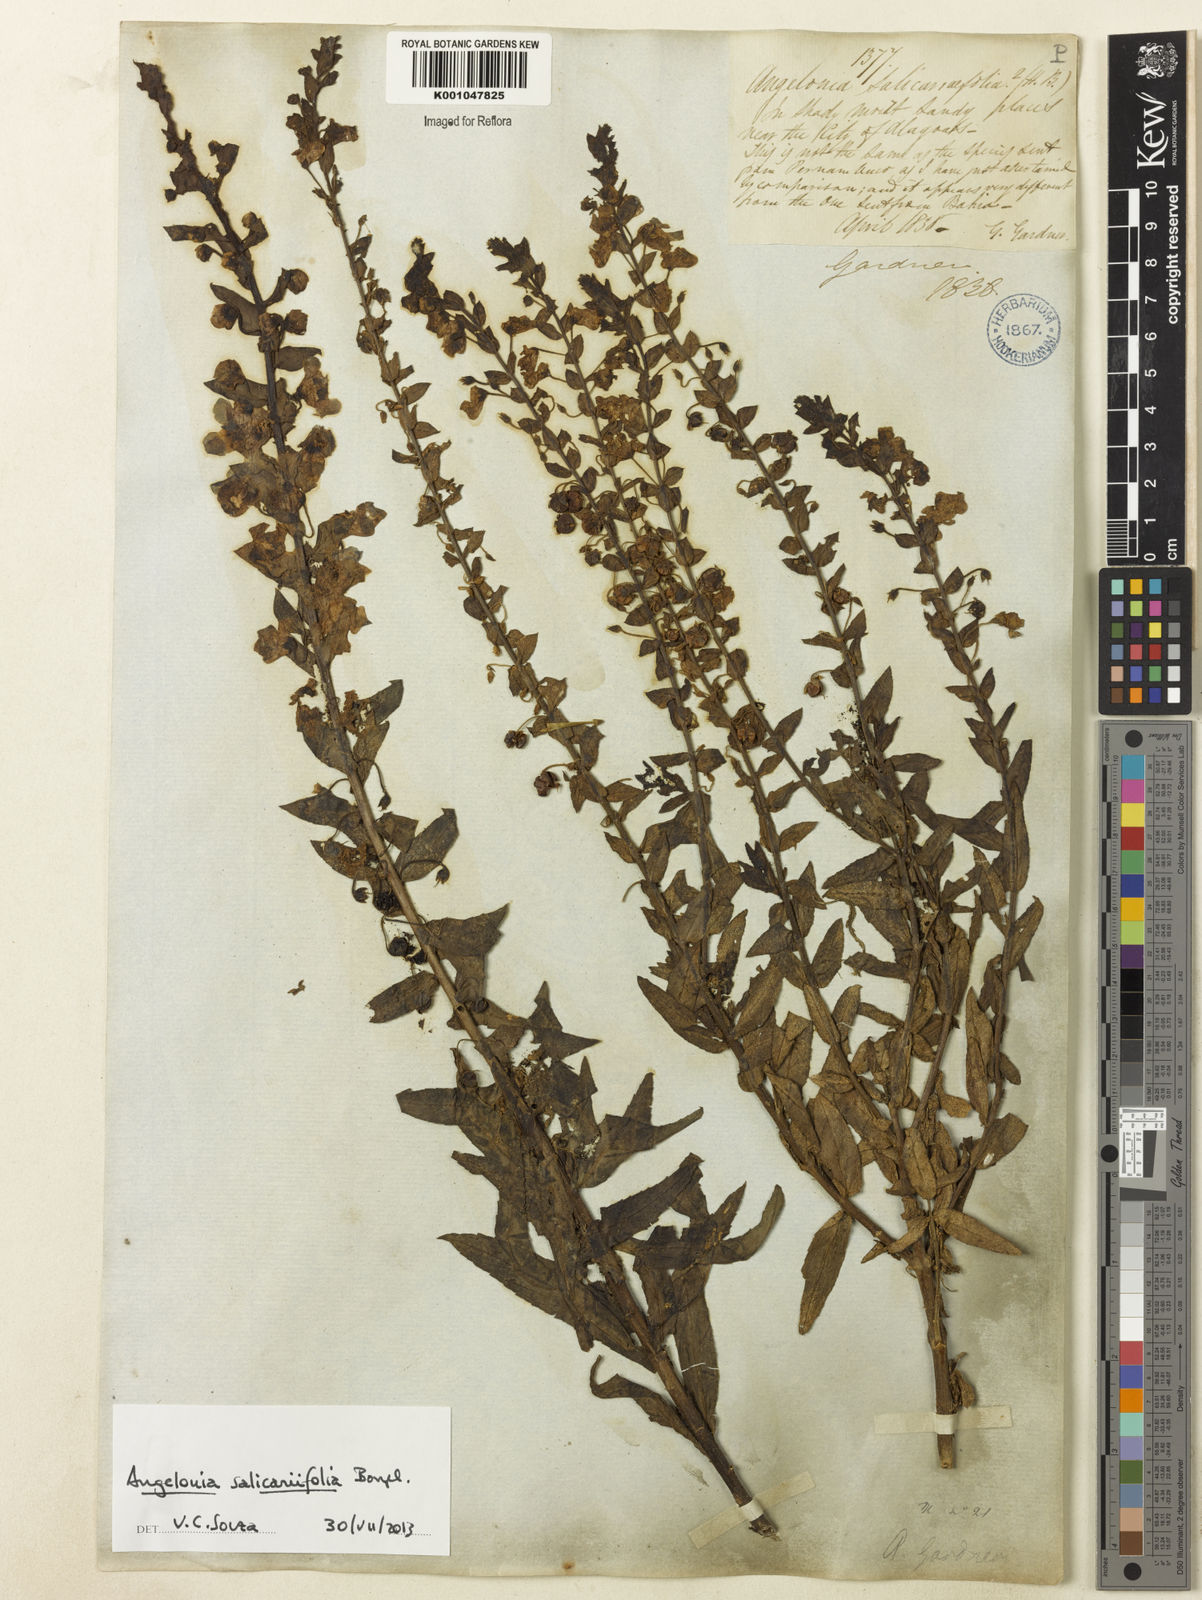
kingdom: Plantae
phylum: Tracheophyta
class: Magnoliopsida
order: Lamiales
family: Plantaginaceae
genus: Angelonia
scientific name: Angelonia salicariifolia
